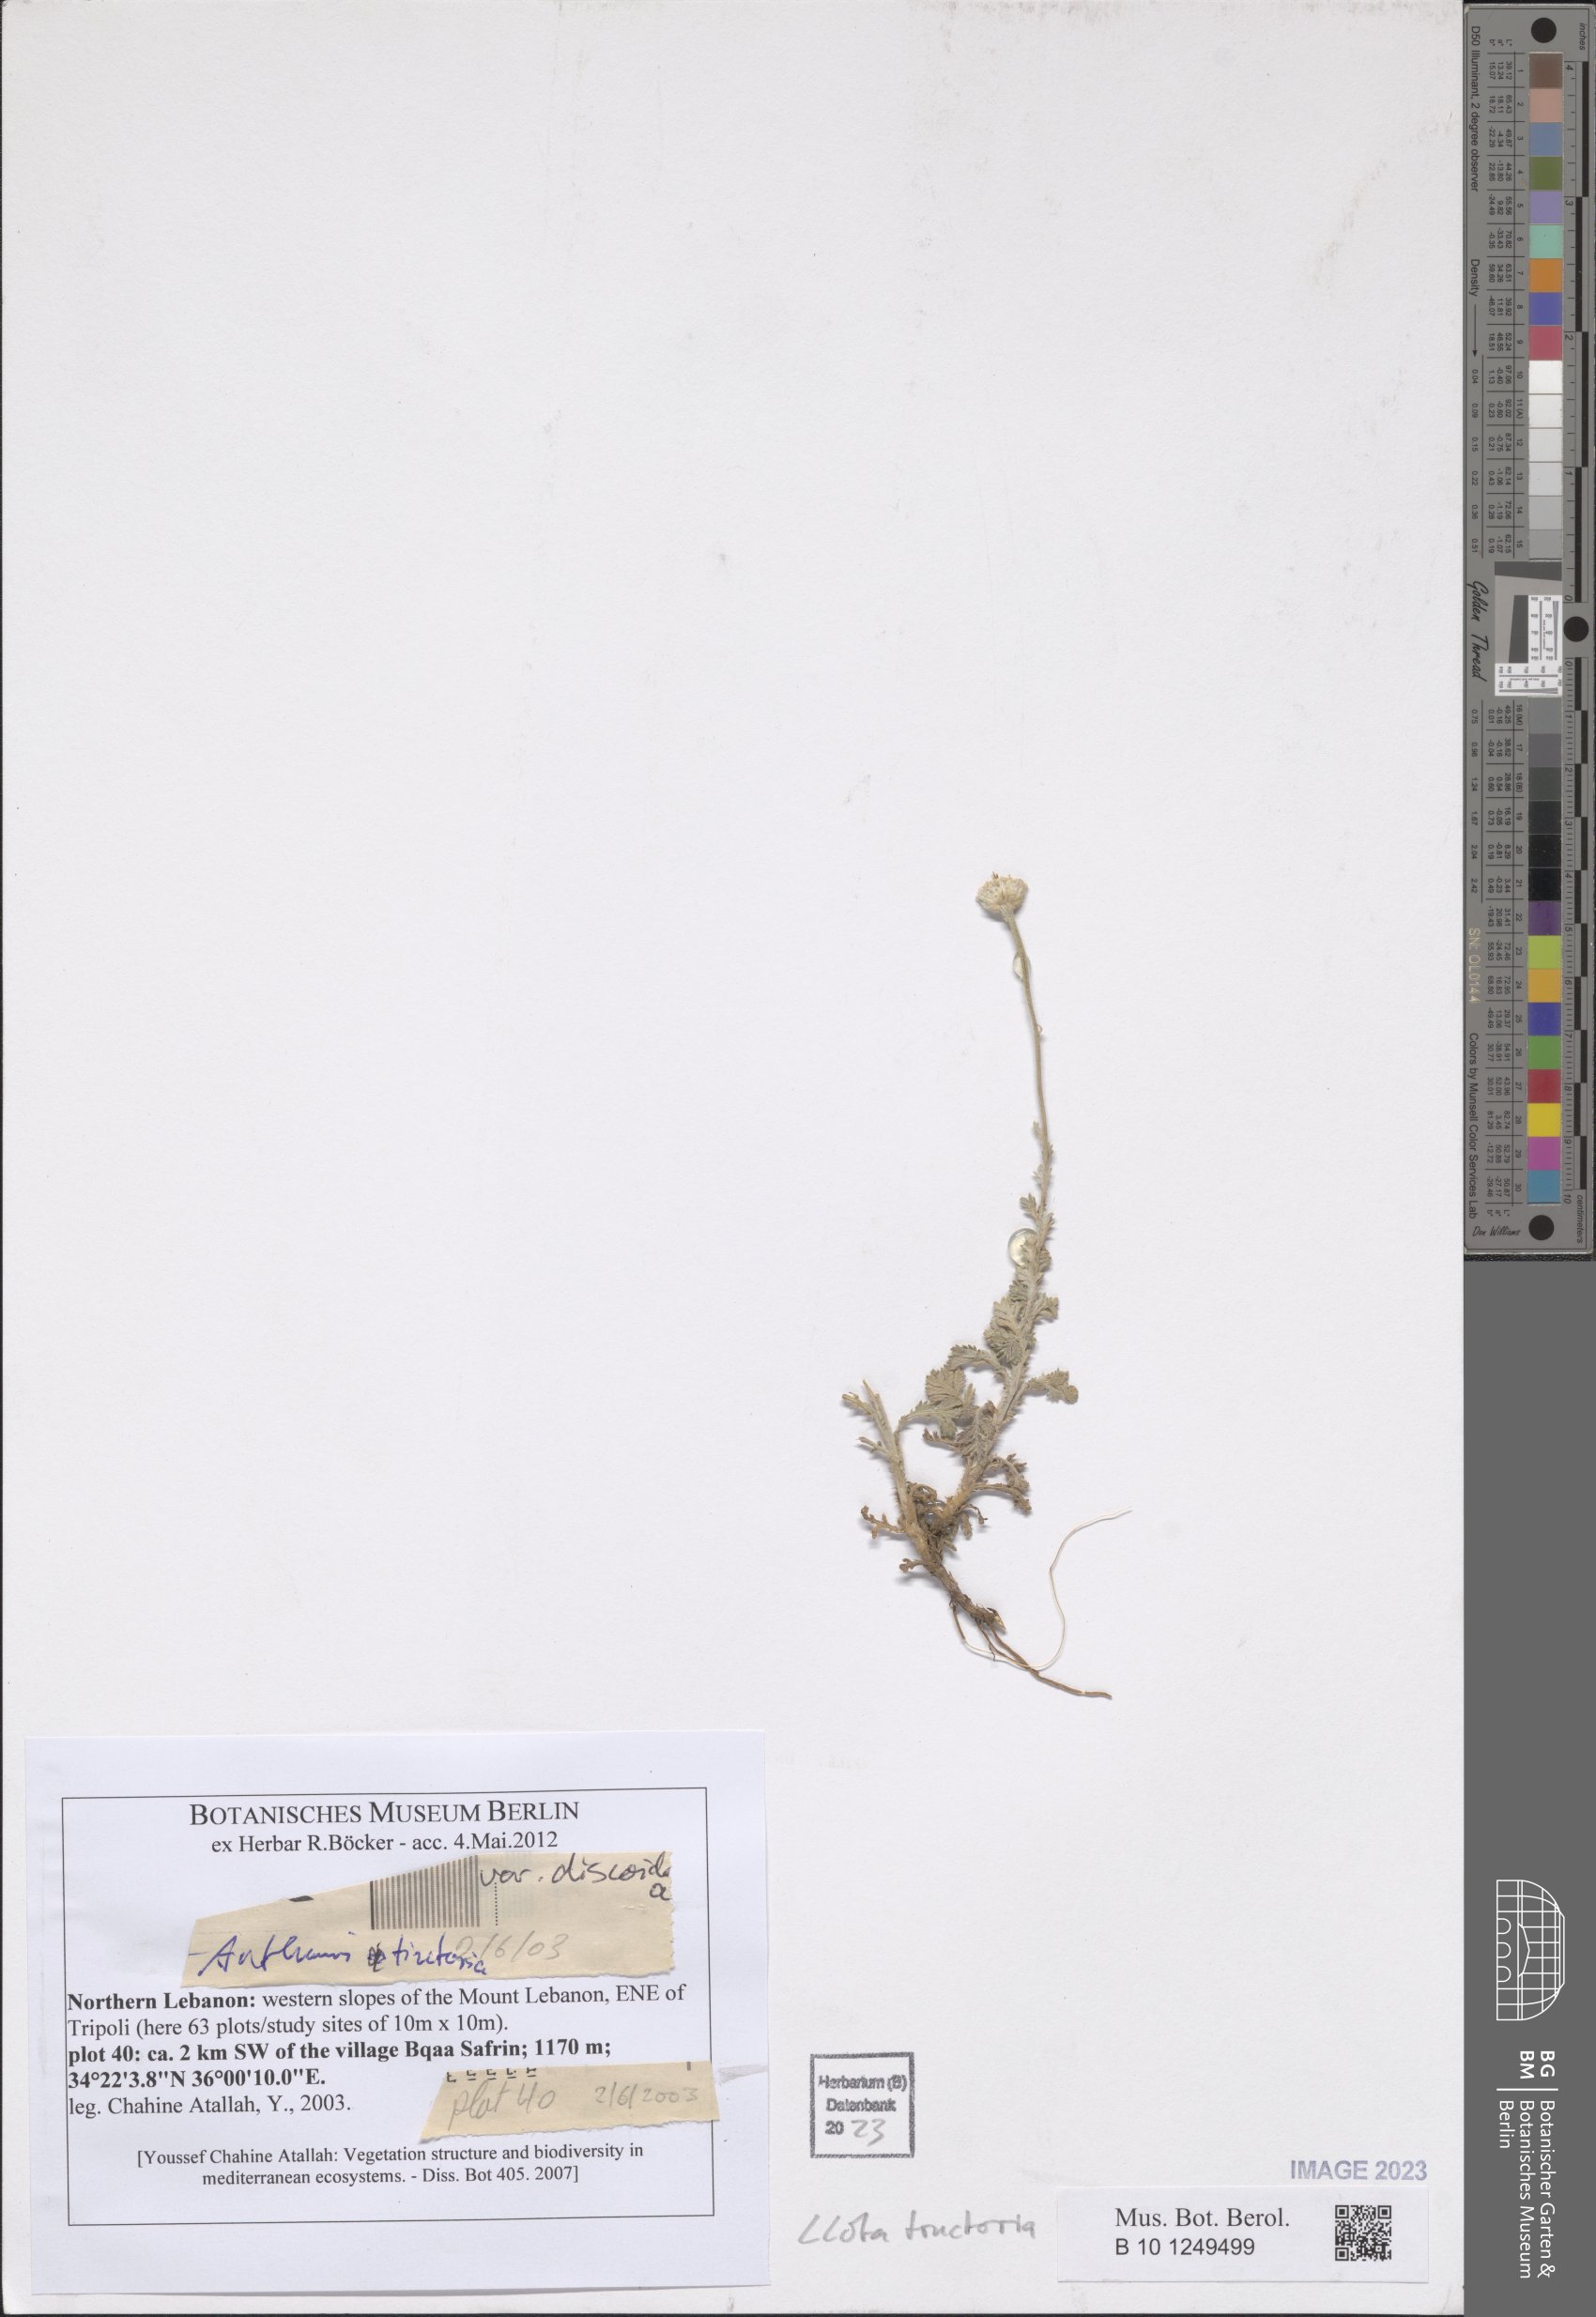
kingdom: Plantae
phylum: Tracheophyta
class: Magnoliopsida
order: Asterales
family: Asteraceae
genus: Cota
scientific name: Cota tinctoria
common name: Golden chamomile
